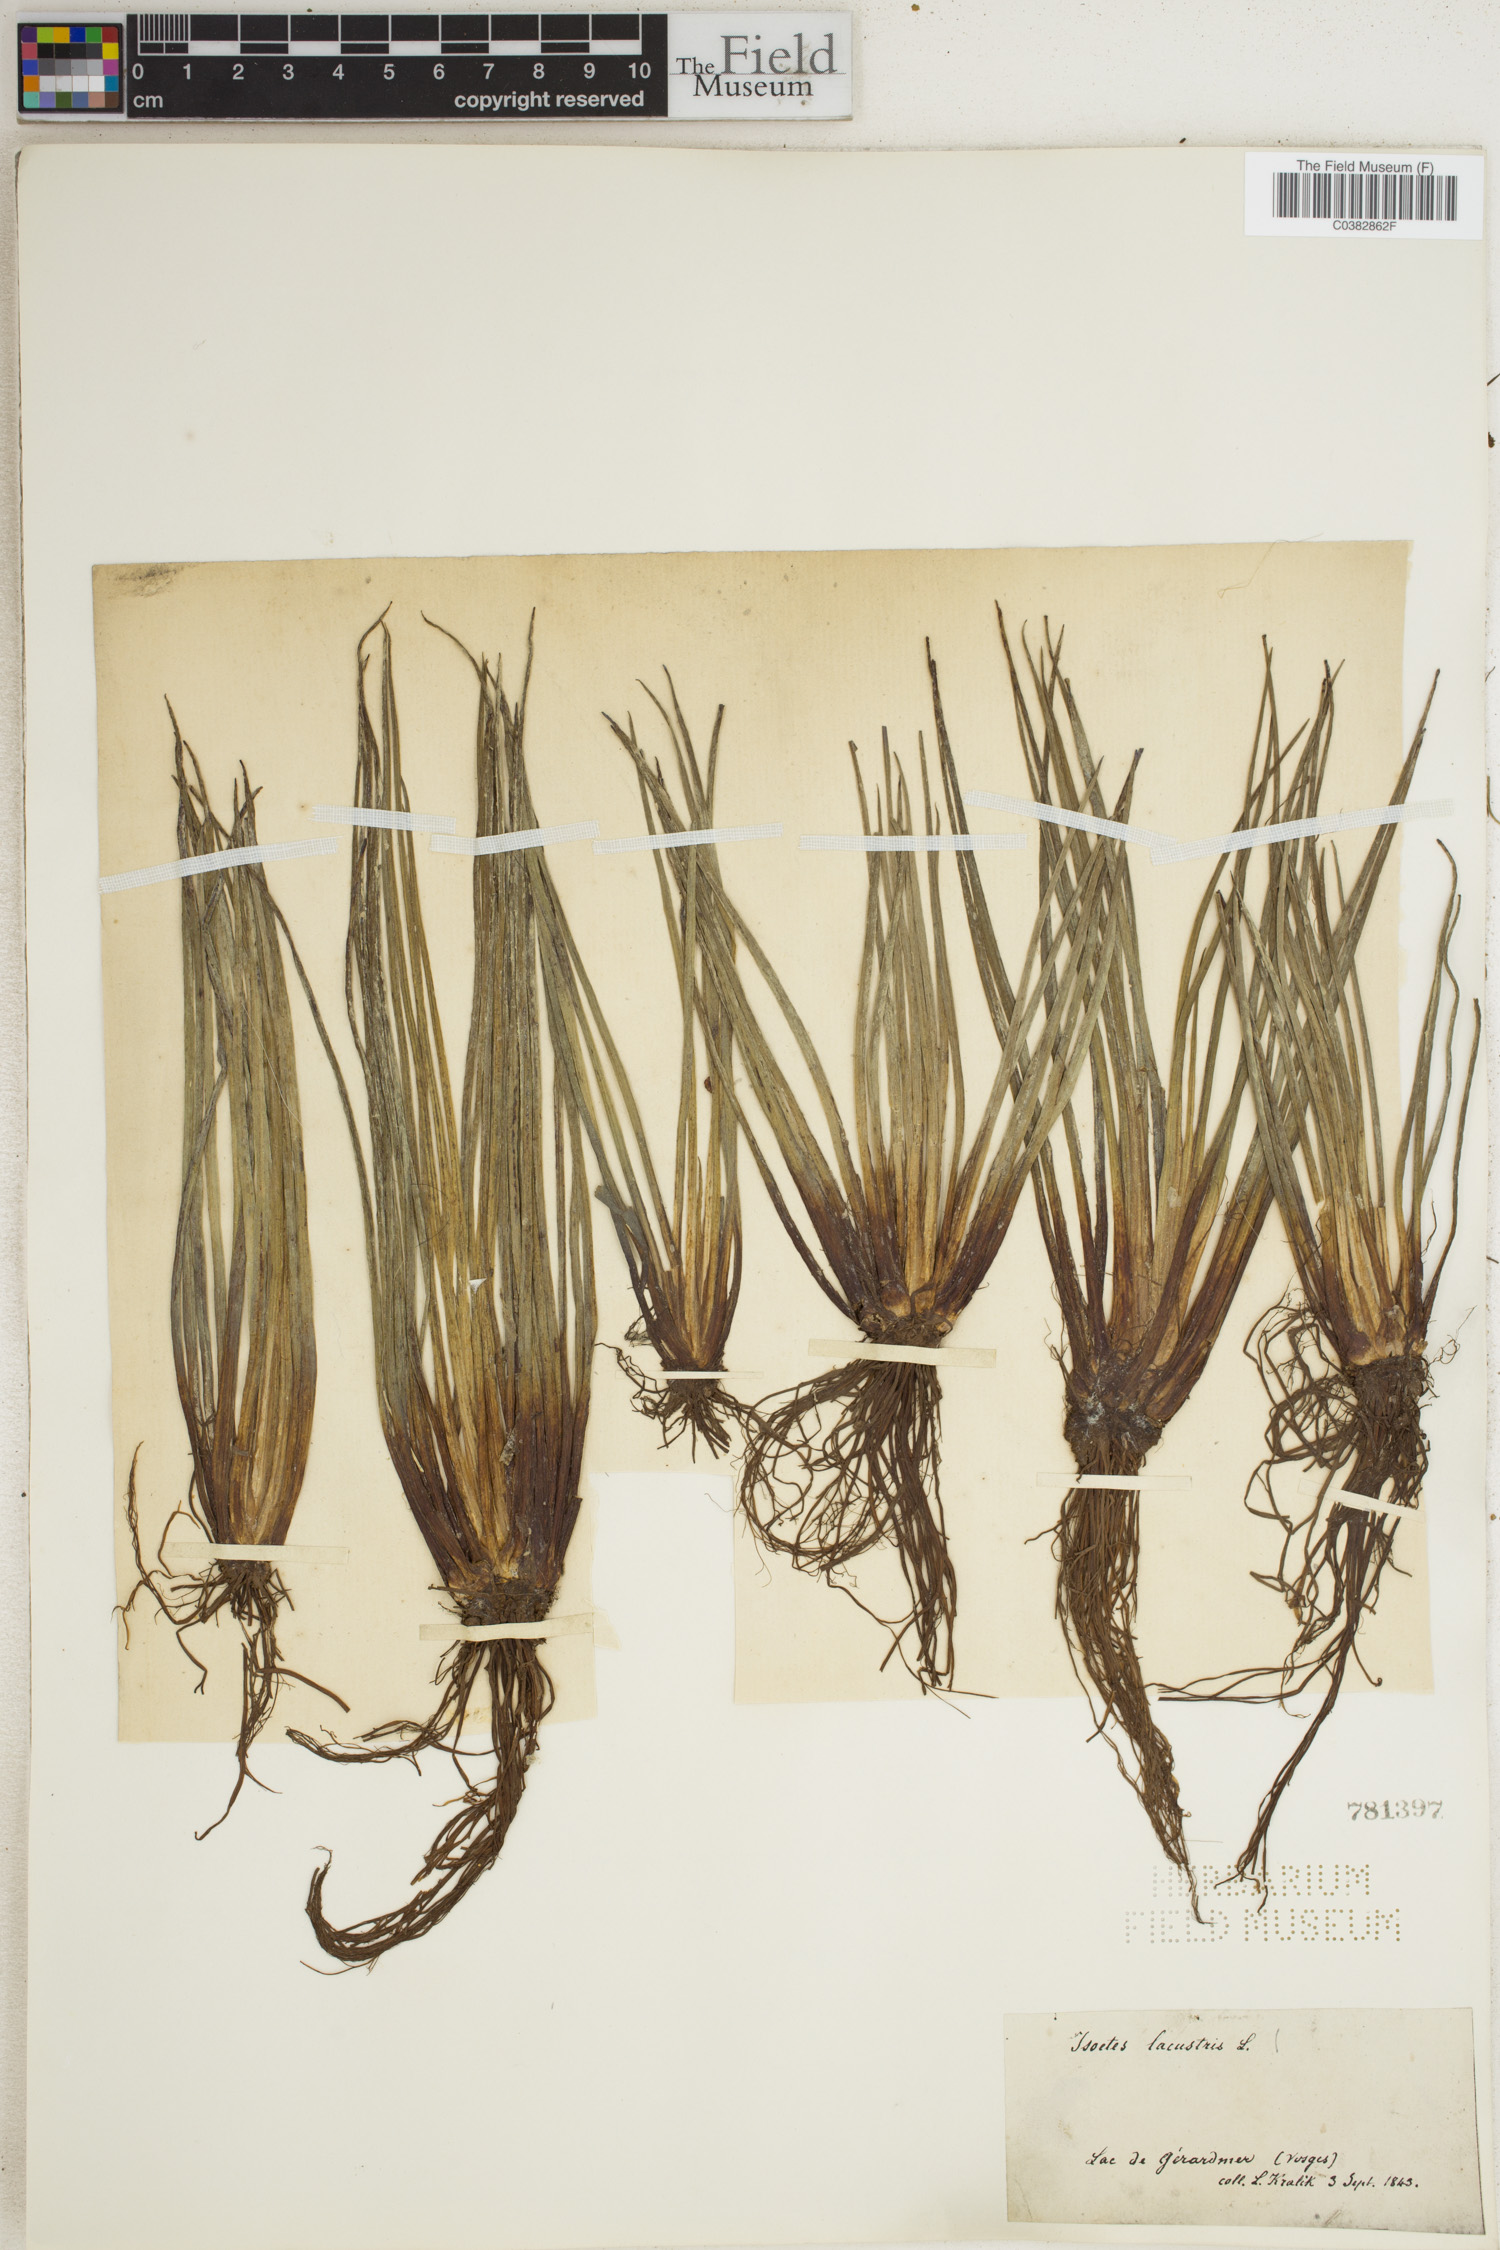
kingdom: Plantae
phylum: Tracheophyta
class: Lycopodiopsida
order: Isoetales
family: Isoetaceae
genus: Isoetes
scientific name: Isoetes lacustris
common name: Common quillwort
